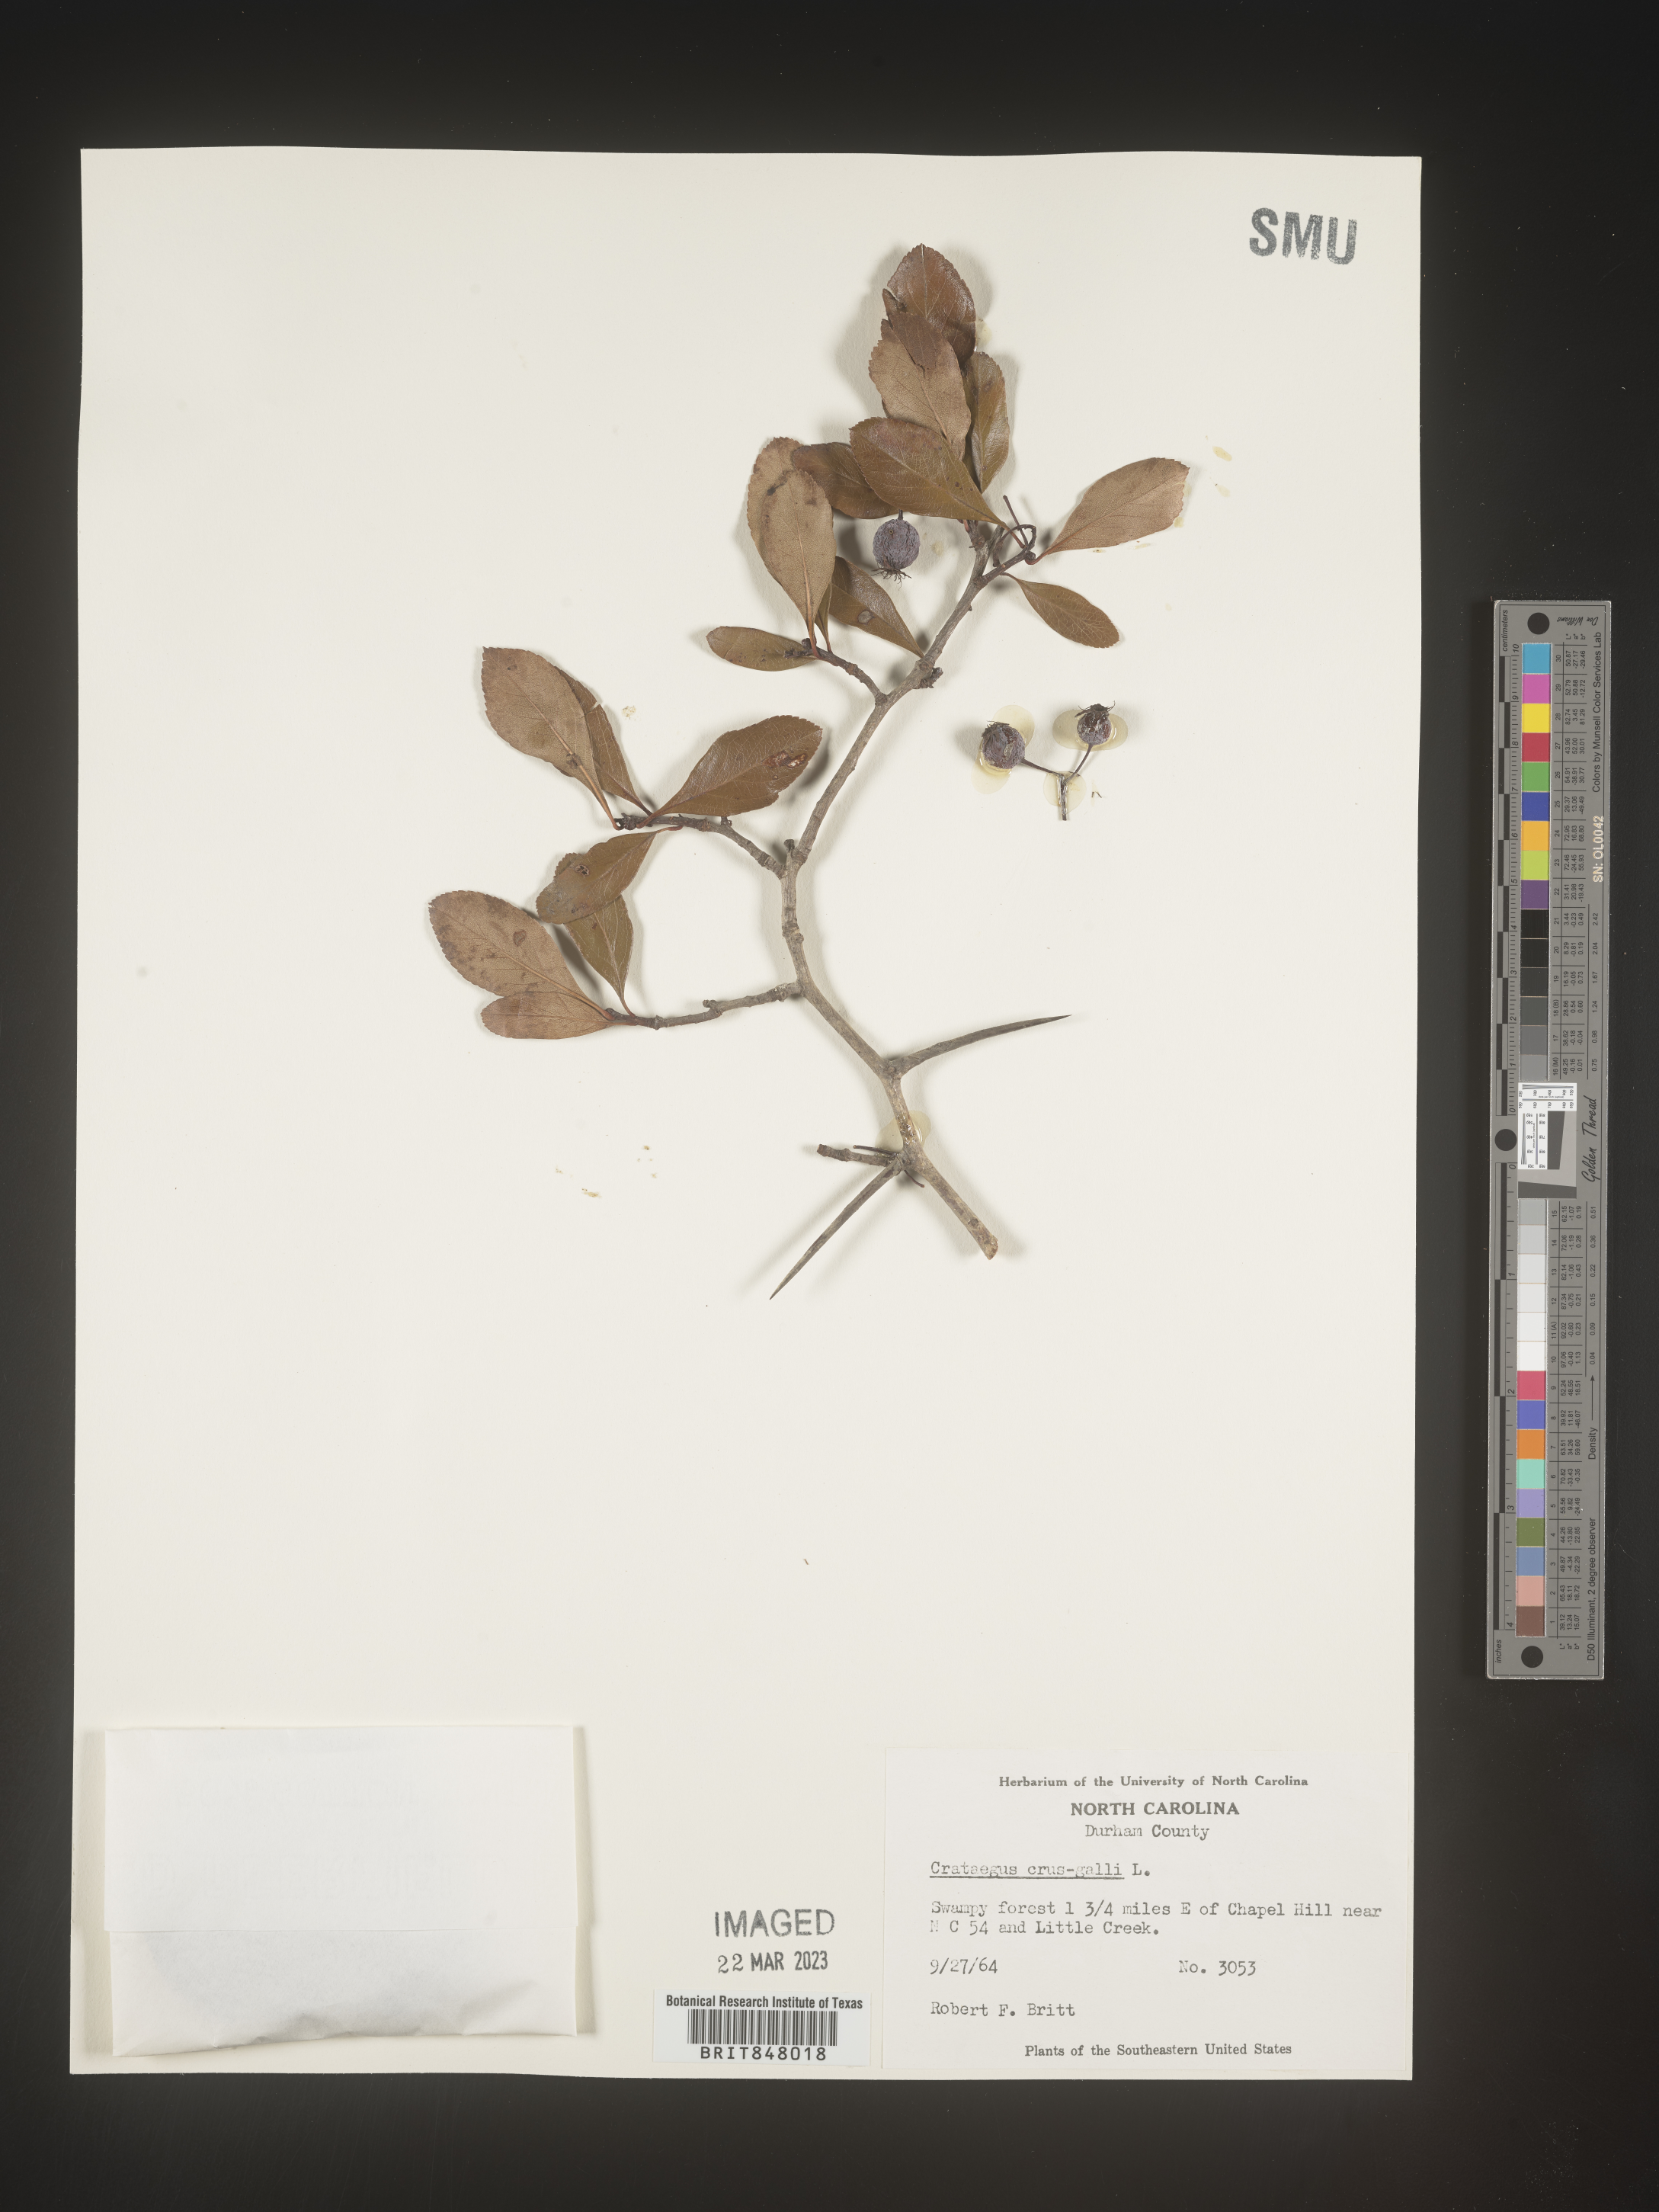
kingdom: Plantae
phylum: Tracheophyta
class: Magnoliopsida
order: Rosales
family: Rosaceae
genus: Crataegus
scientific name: Crataegus crus-galli
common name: Cockspurthorn
